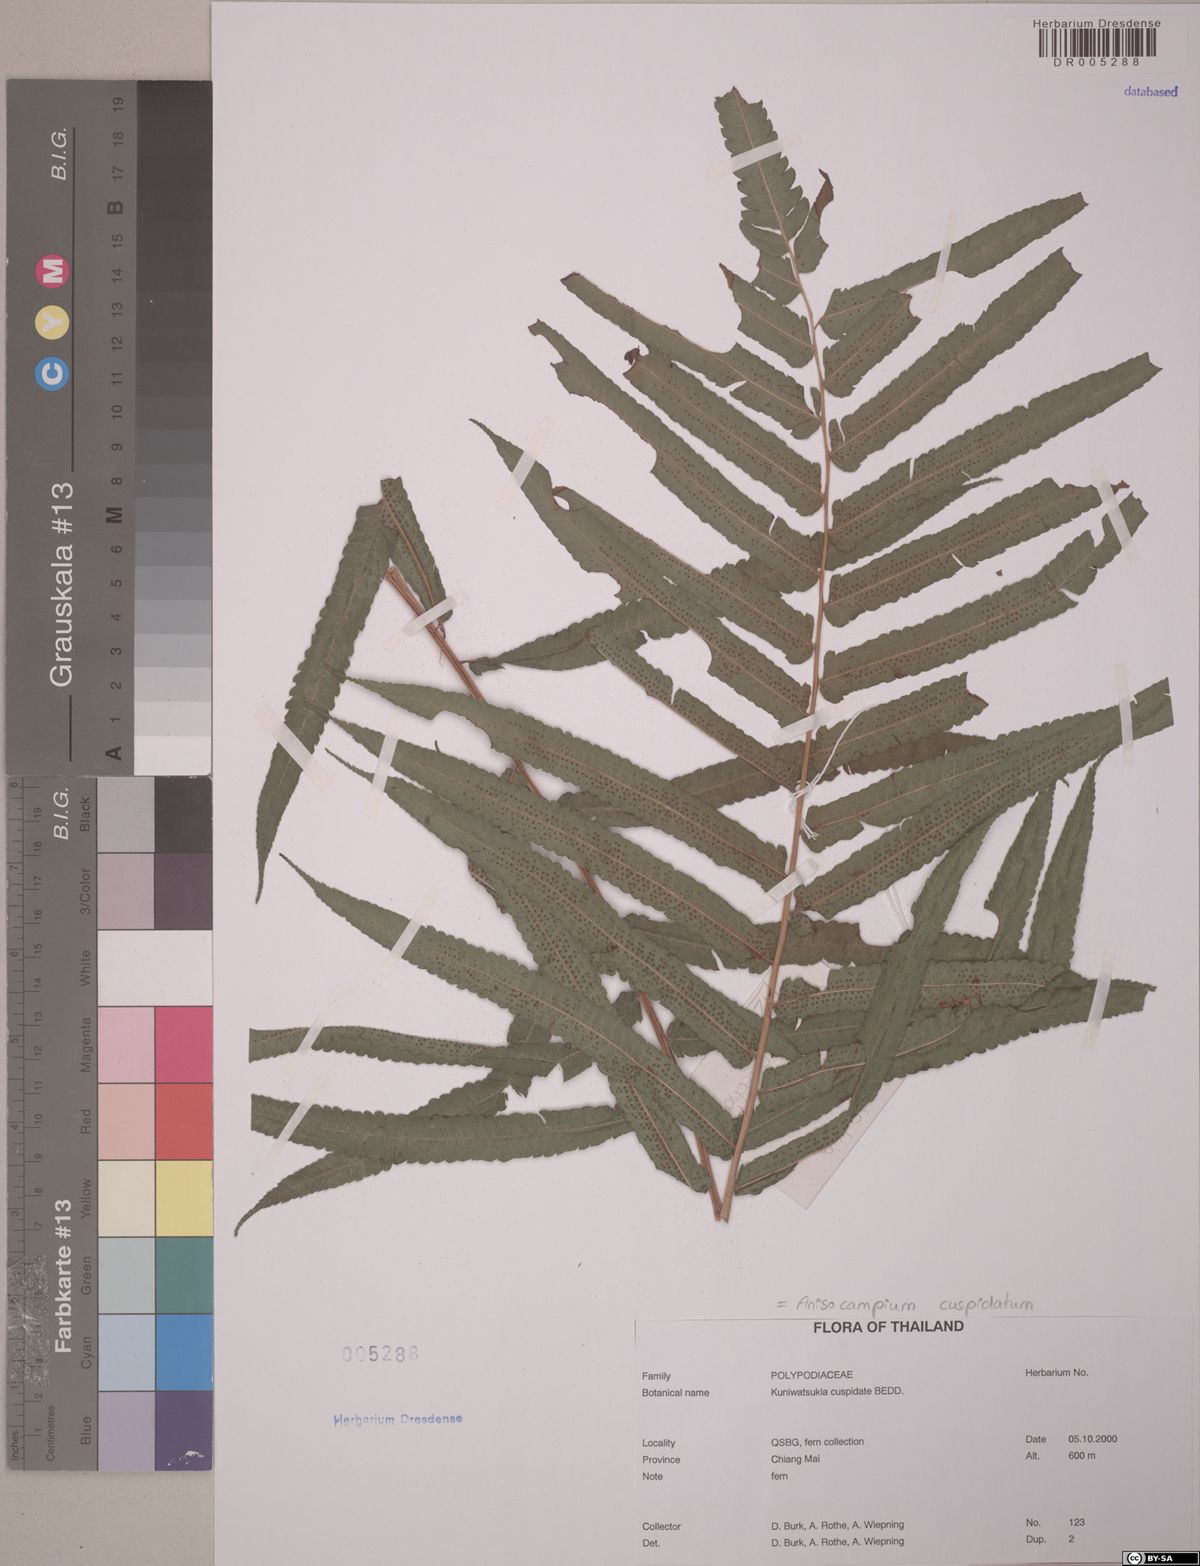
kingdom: Plantae
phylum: Tracheophyta
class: Polypodiopsida
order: Polypodiales
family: Athyriaceae
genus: Anisocampium
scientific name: Anisocampium cuspidatum
